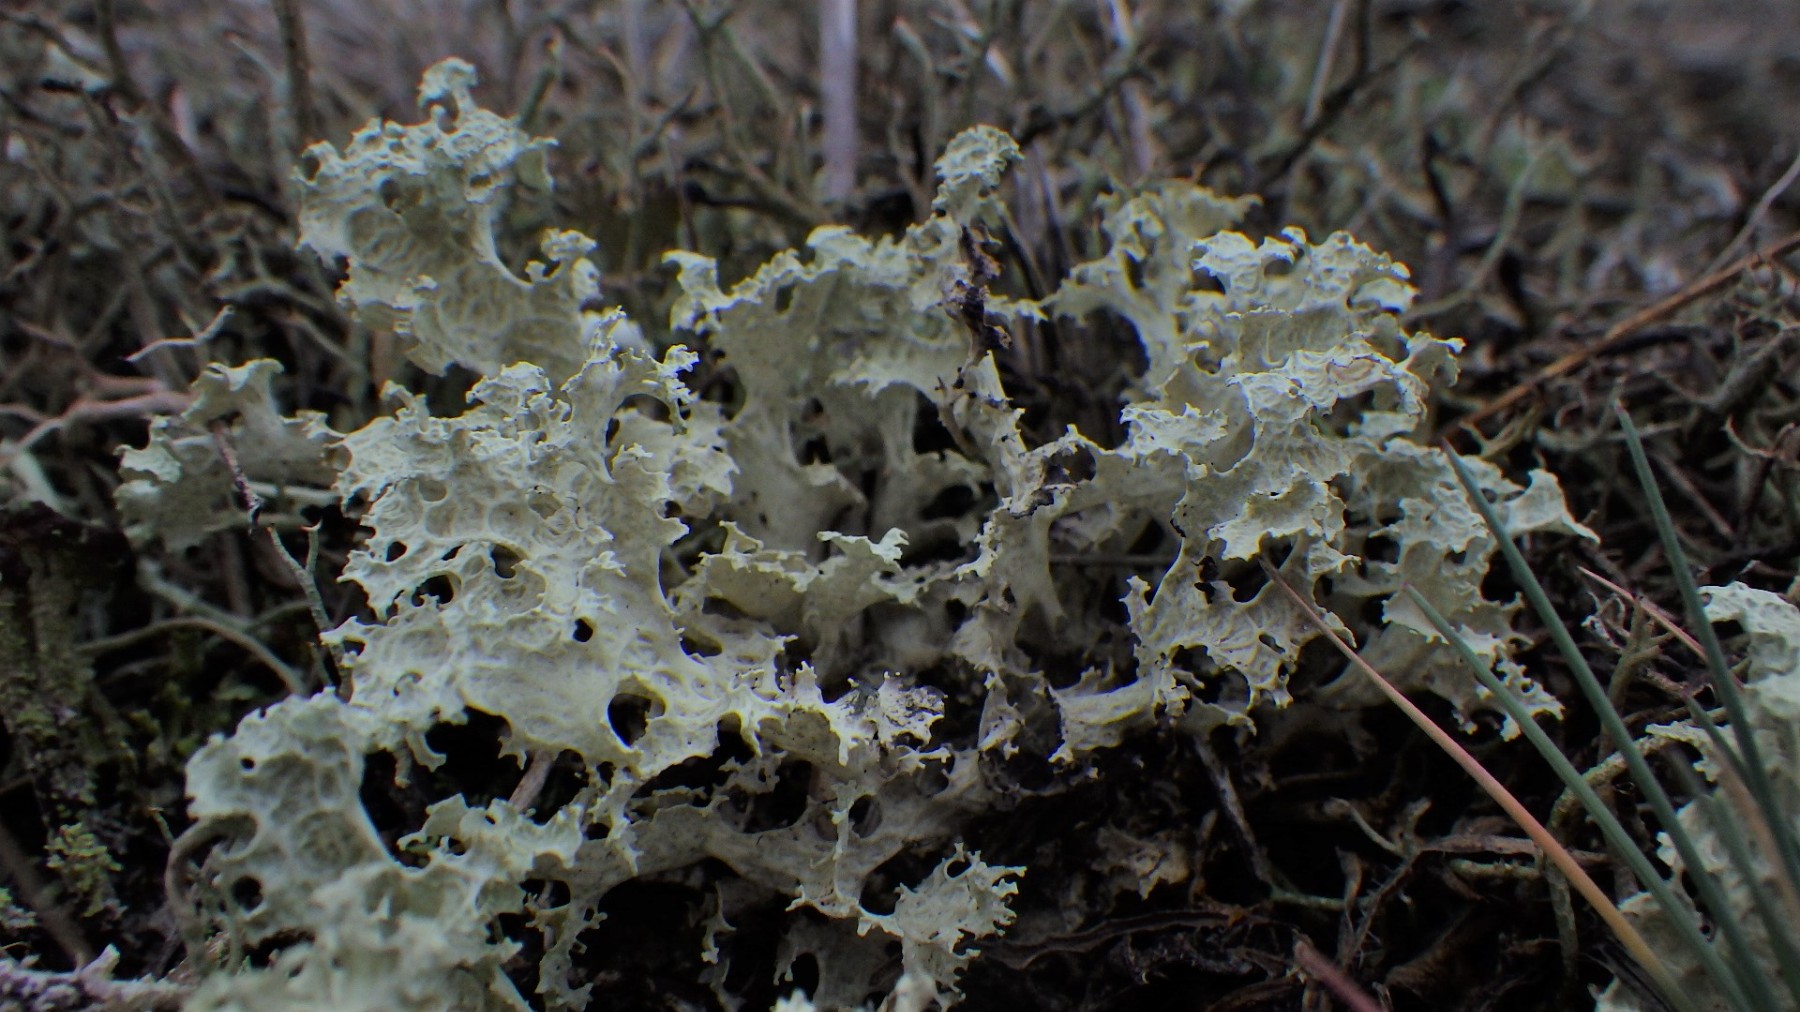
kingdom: Fungi
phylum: Ascomycota
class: Lecanoromycetes
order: Lecanorales
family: Parmeliaceae
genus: Nephromopsis
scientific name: Nephromopsis nivalis
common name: sne-kruslav
